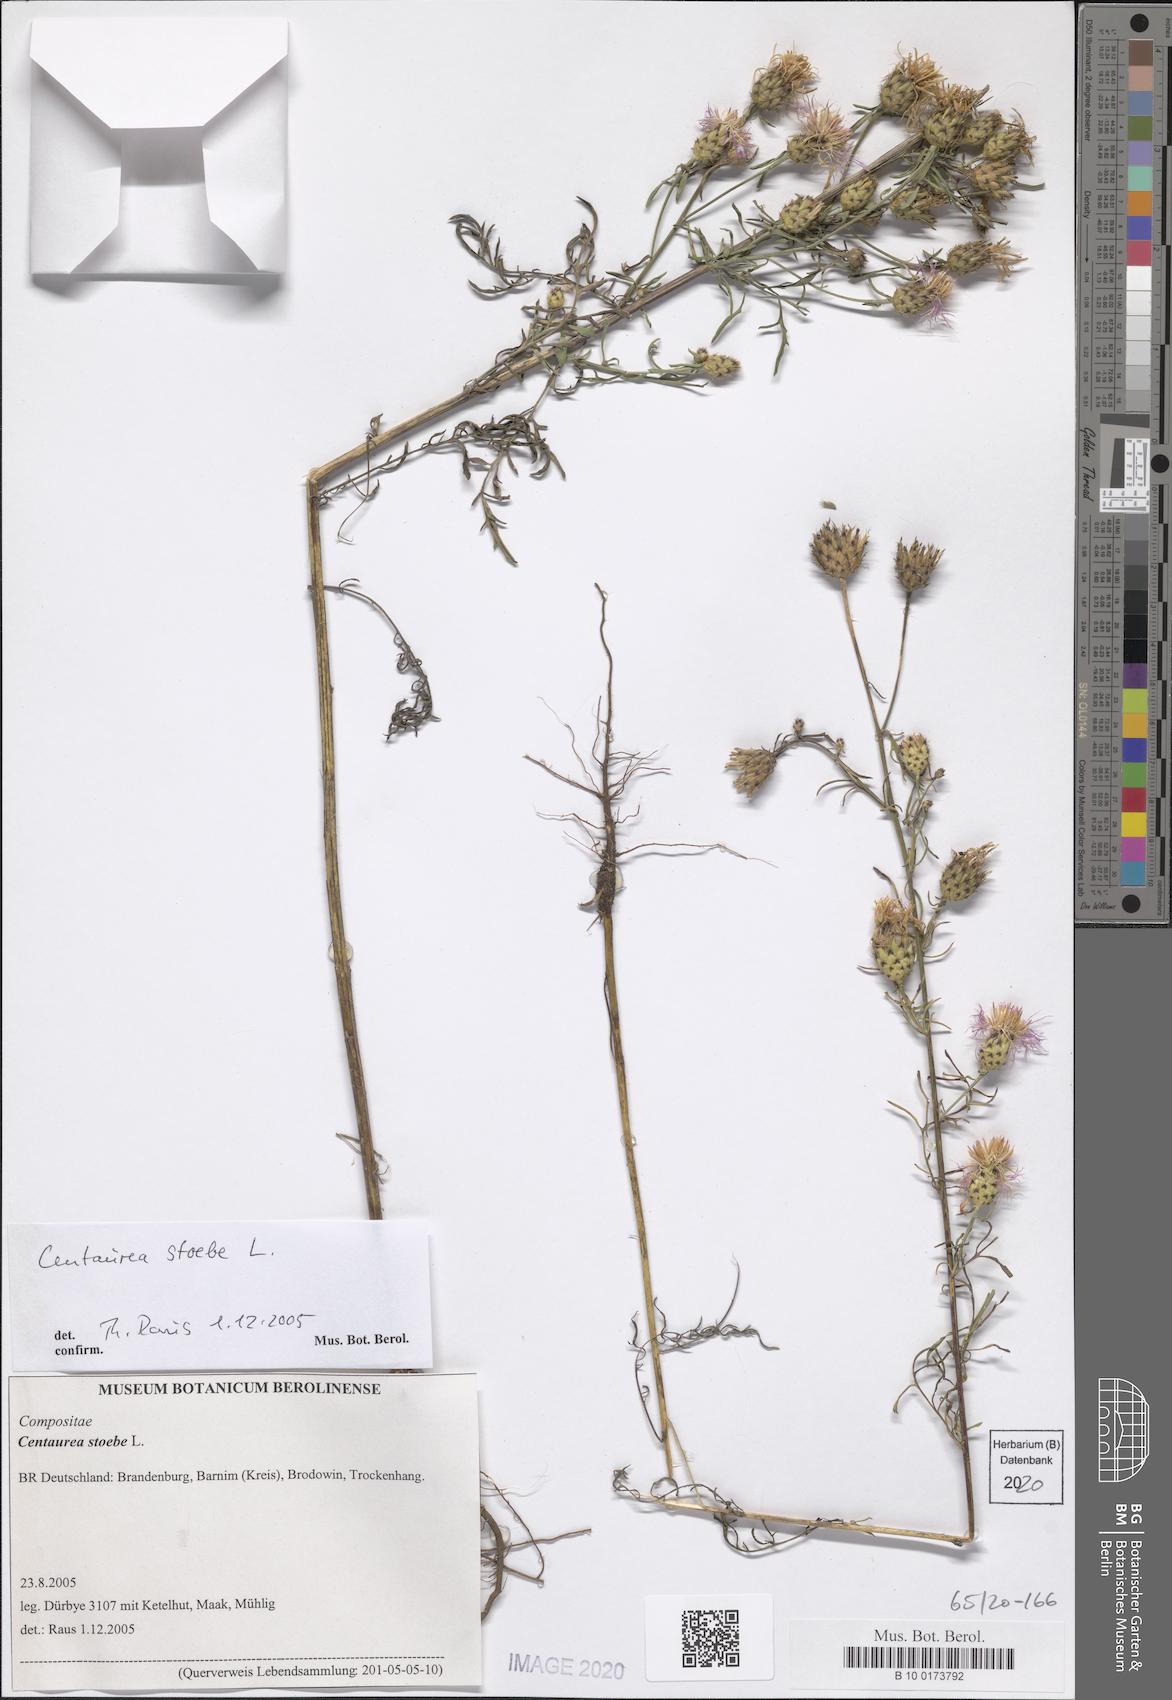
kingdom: Plantae
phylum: Tracheophyta
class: Magnoliopsida
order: Asterales
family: Asteraceae
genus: Centaurea
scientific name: Centaurea stoebe
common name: Spotted knapweed
